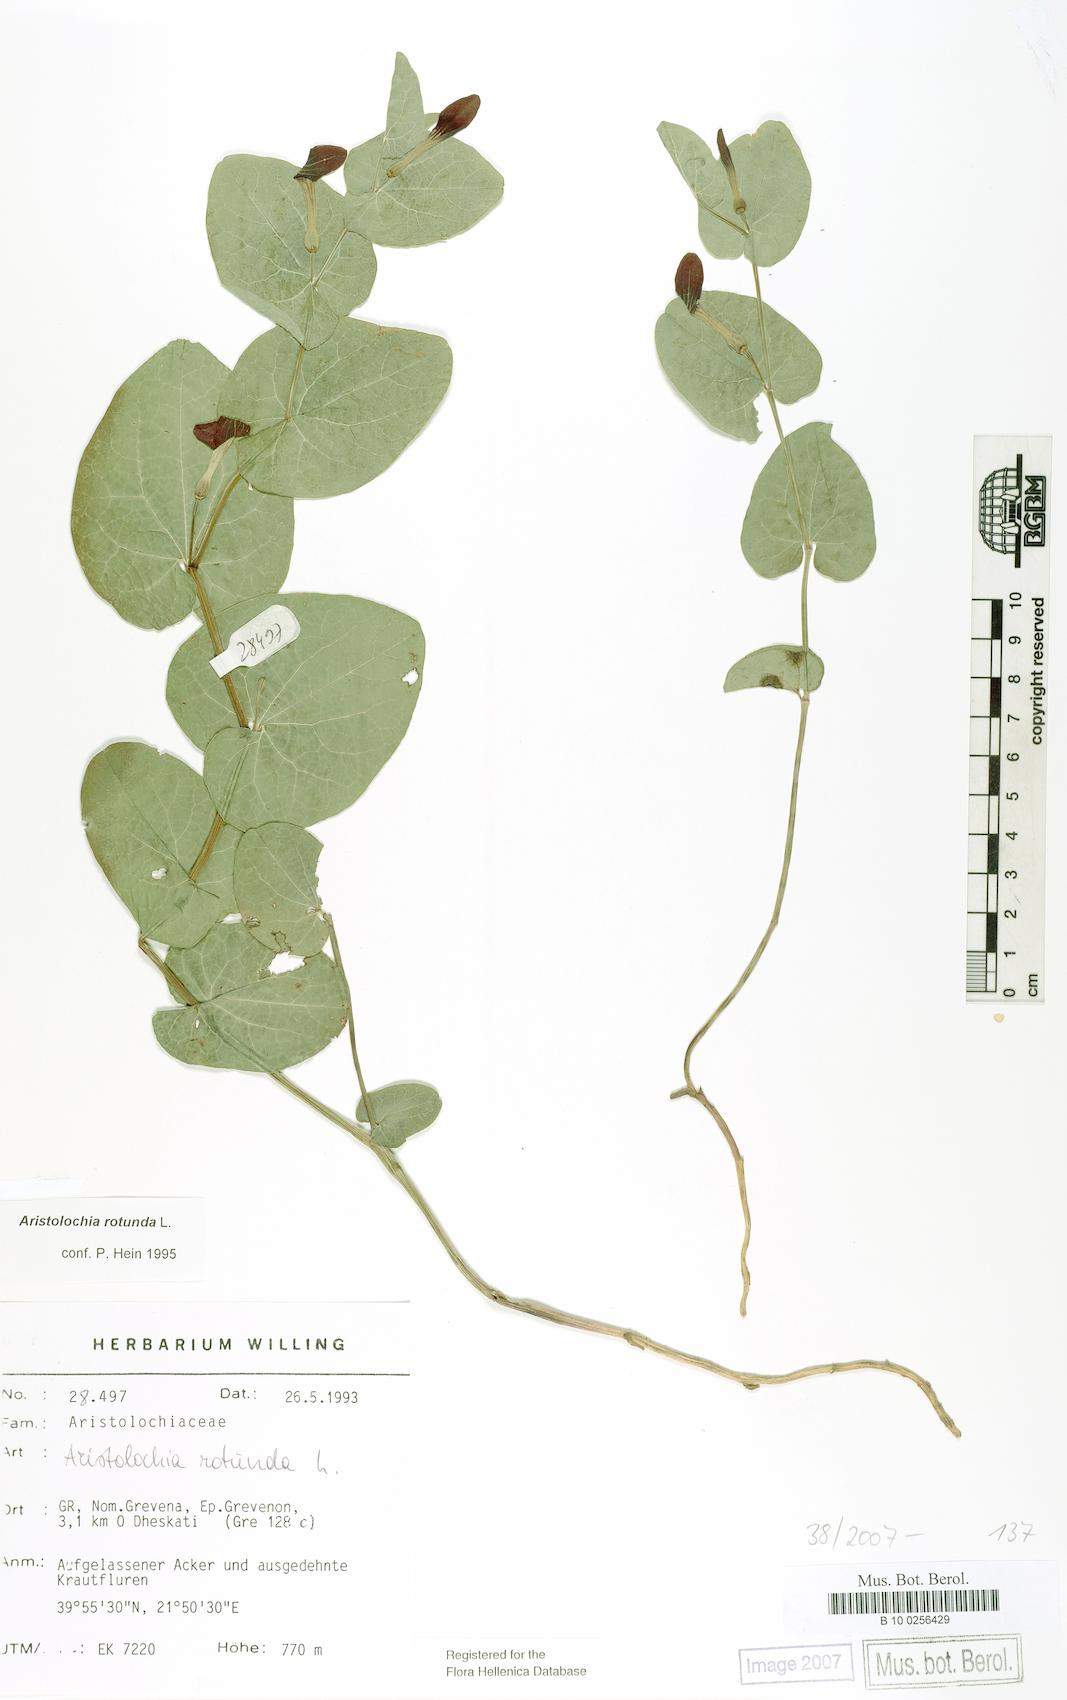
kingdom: Plantae
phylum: Tracheophyta
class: Magnoliopsida
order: Piperales
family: Aristolochiaceae
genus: Aristolochia
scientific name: Aristolochia rotunda
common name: Smearwort
